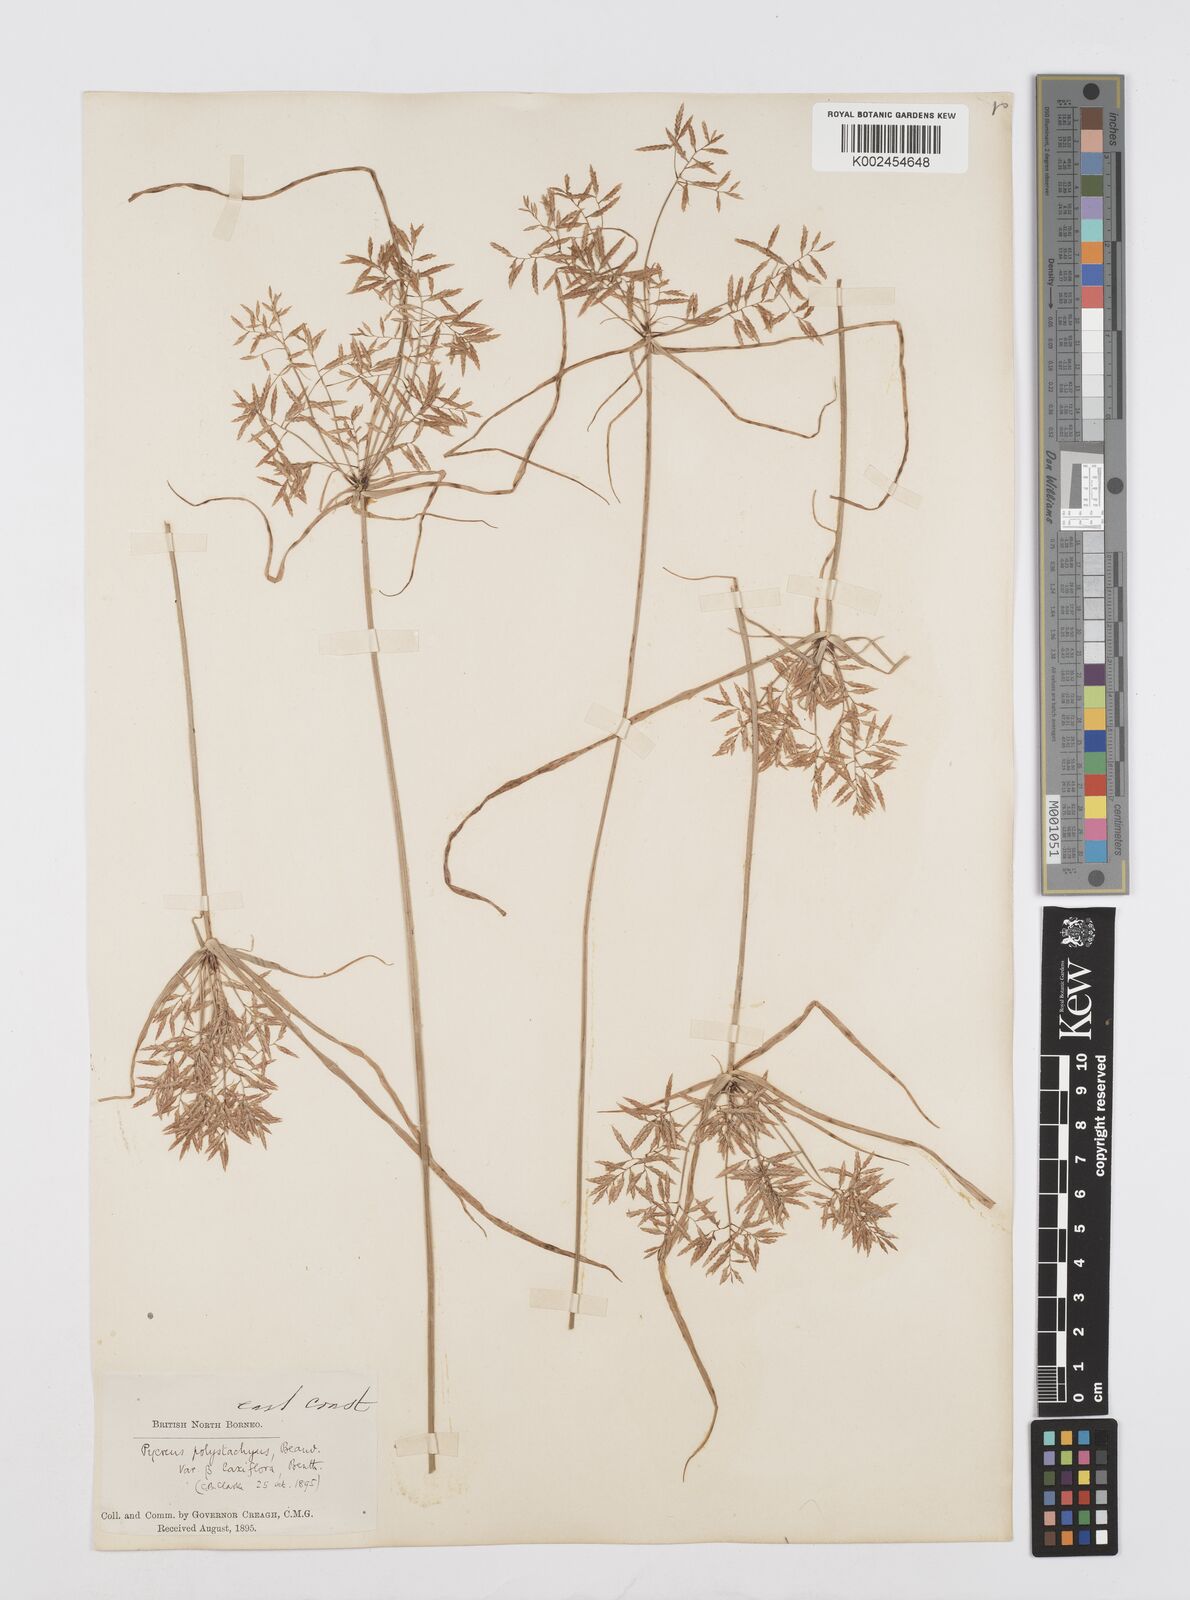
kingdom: Plantae
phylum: Tracheophyta
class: Liliopsida
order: Poales
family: Cyperaceae
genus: Cyperus
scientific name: Cyperus polystachyos
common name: Bunchy flat sedge
